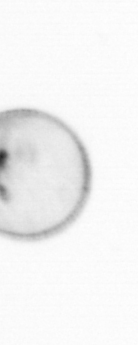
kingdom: Chromista
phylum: Myzozoa
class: Dinophyceae
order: Noctilucales
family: Noctilucaceae
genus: Noctiluca
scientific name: Noctiluca scintillans
